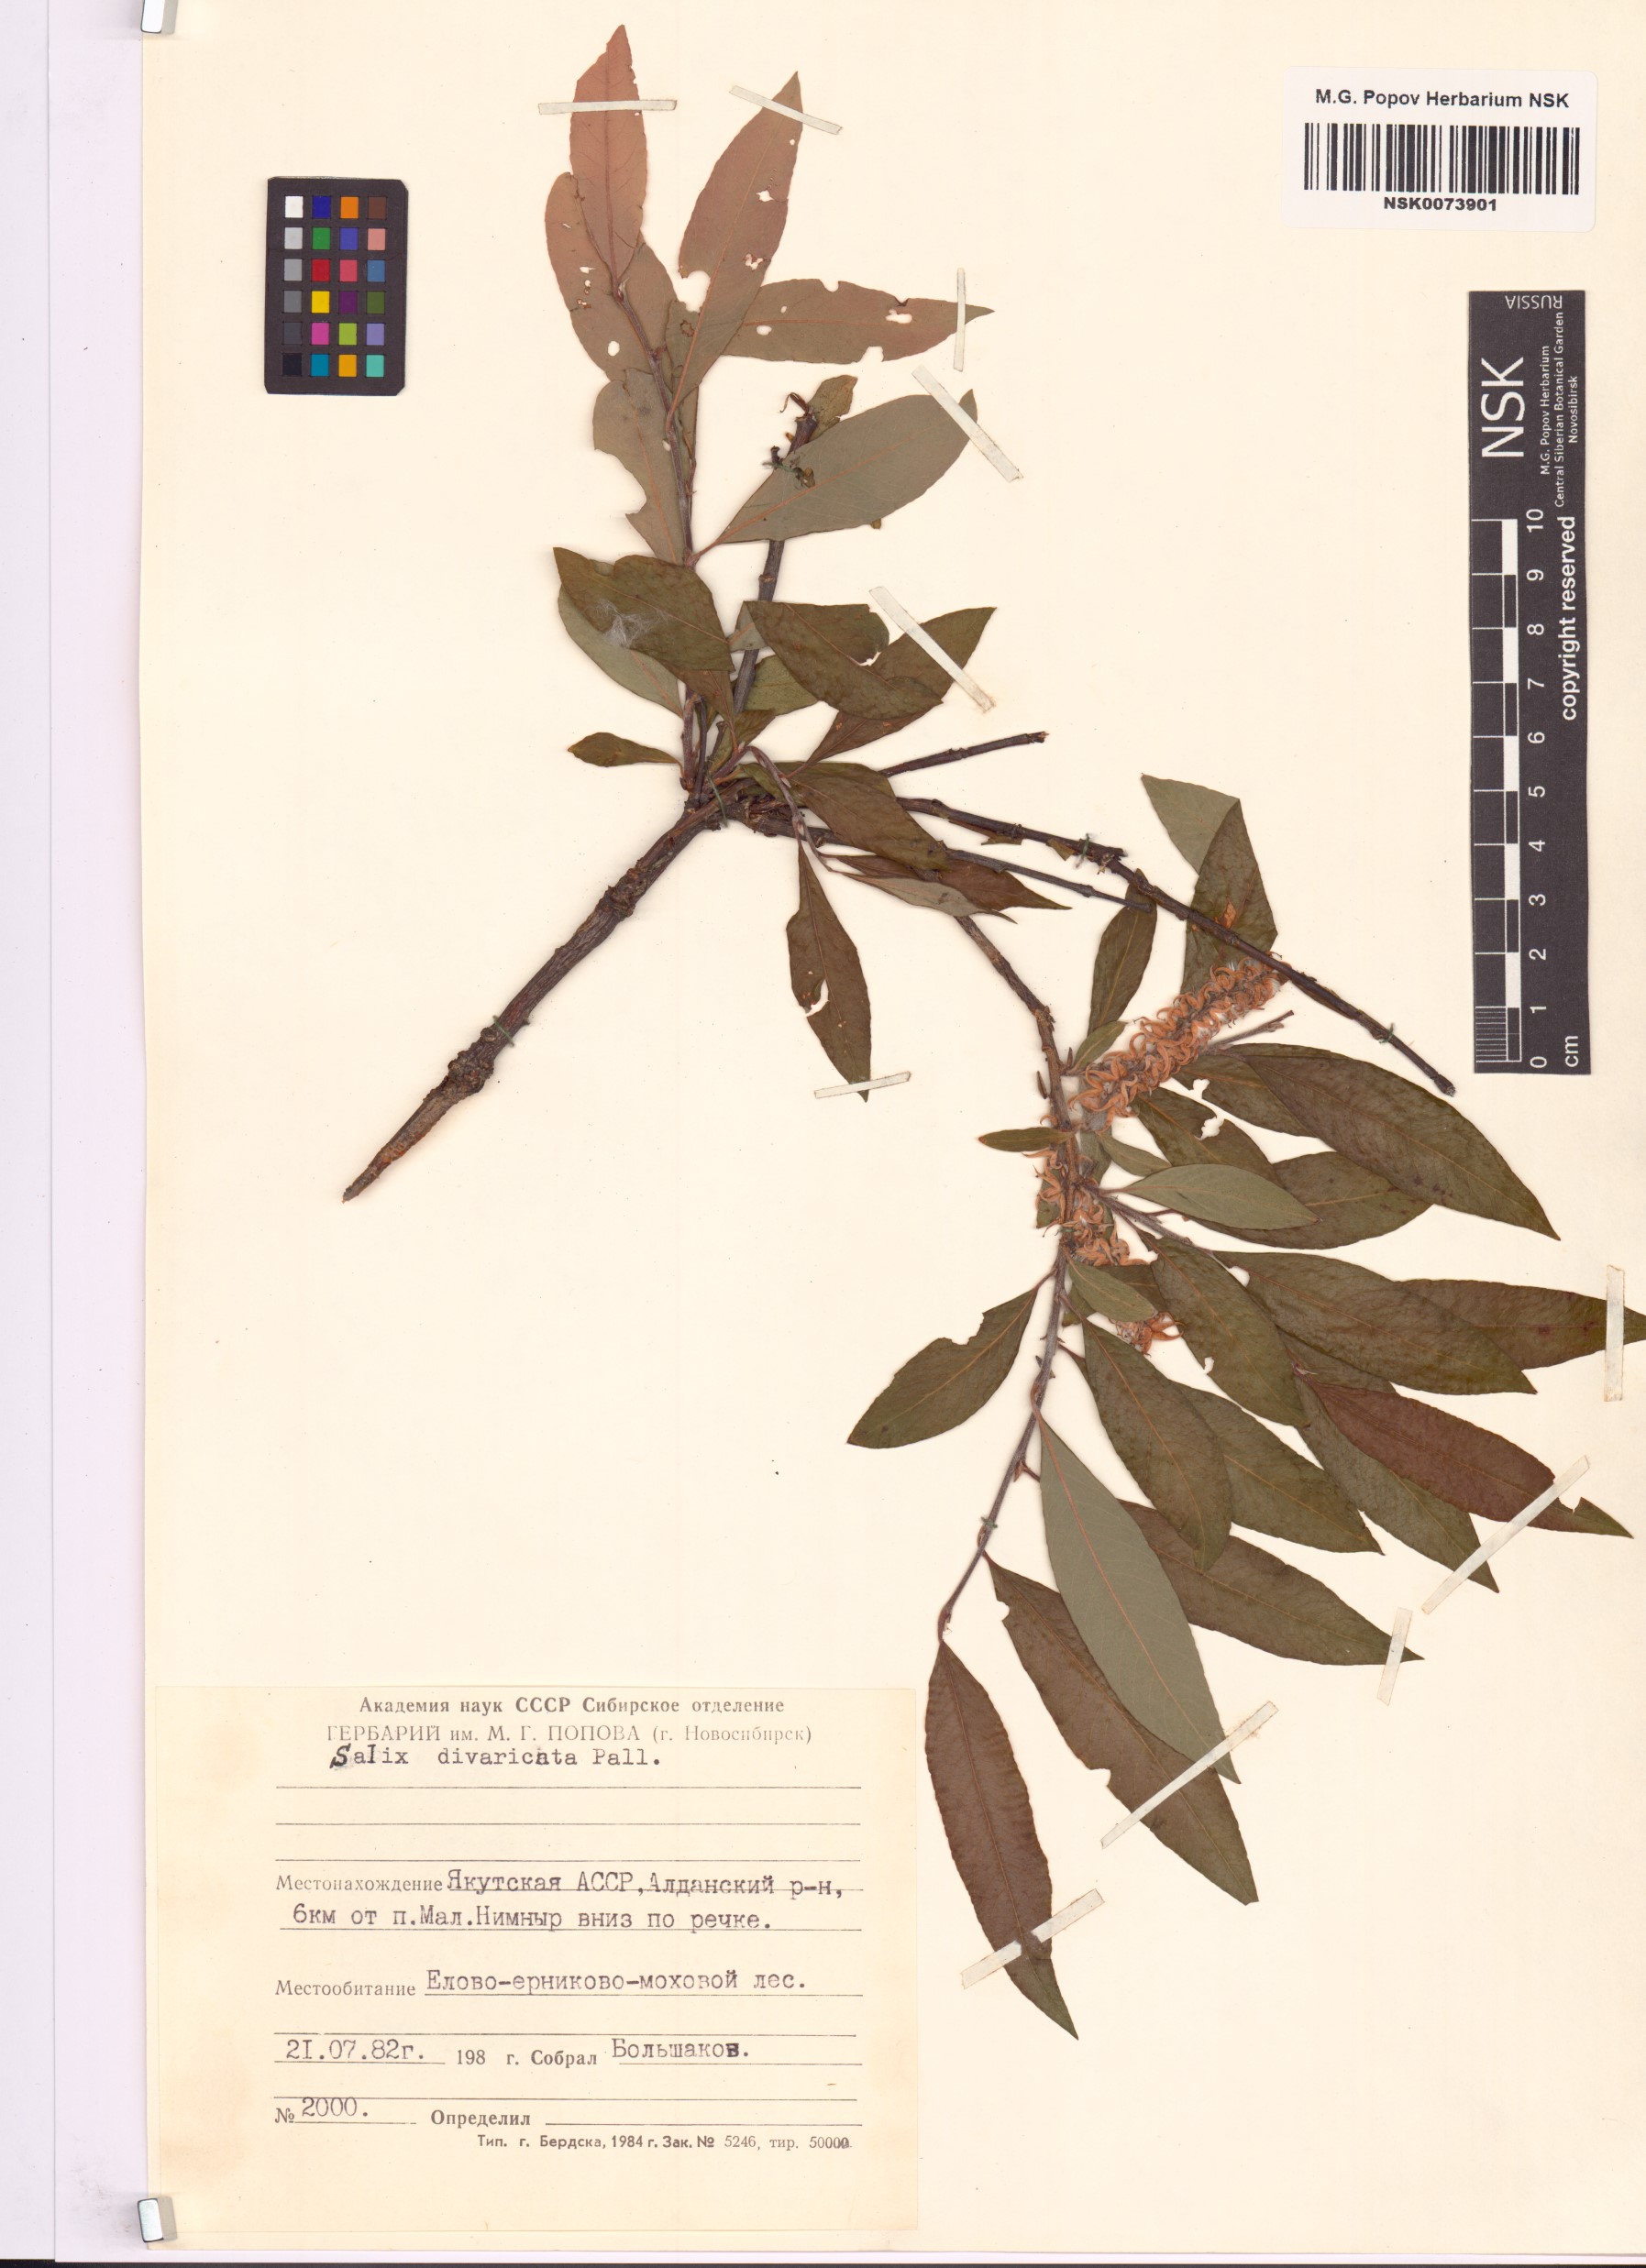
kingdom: Plantae
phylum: Tracheophyta
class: Magnoliopsida
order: Malpighiales
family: Salicaceae
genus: Salix
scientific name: Salix divaricata
